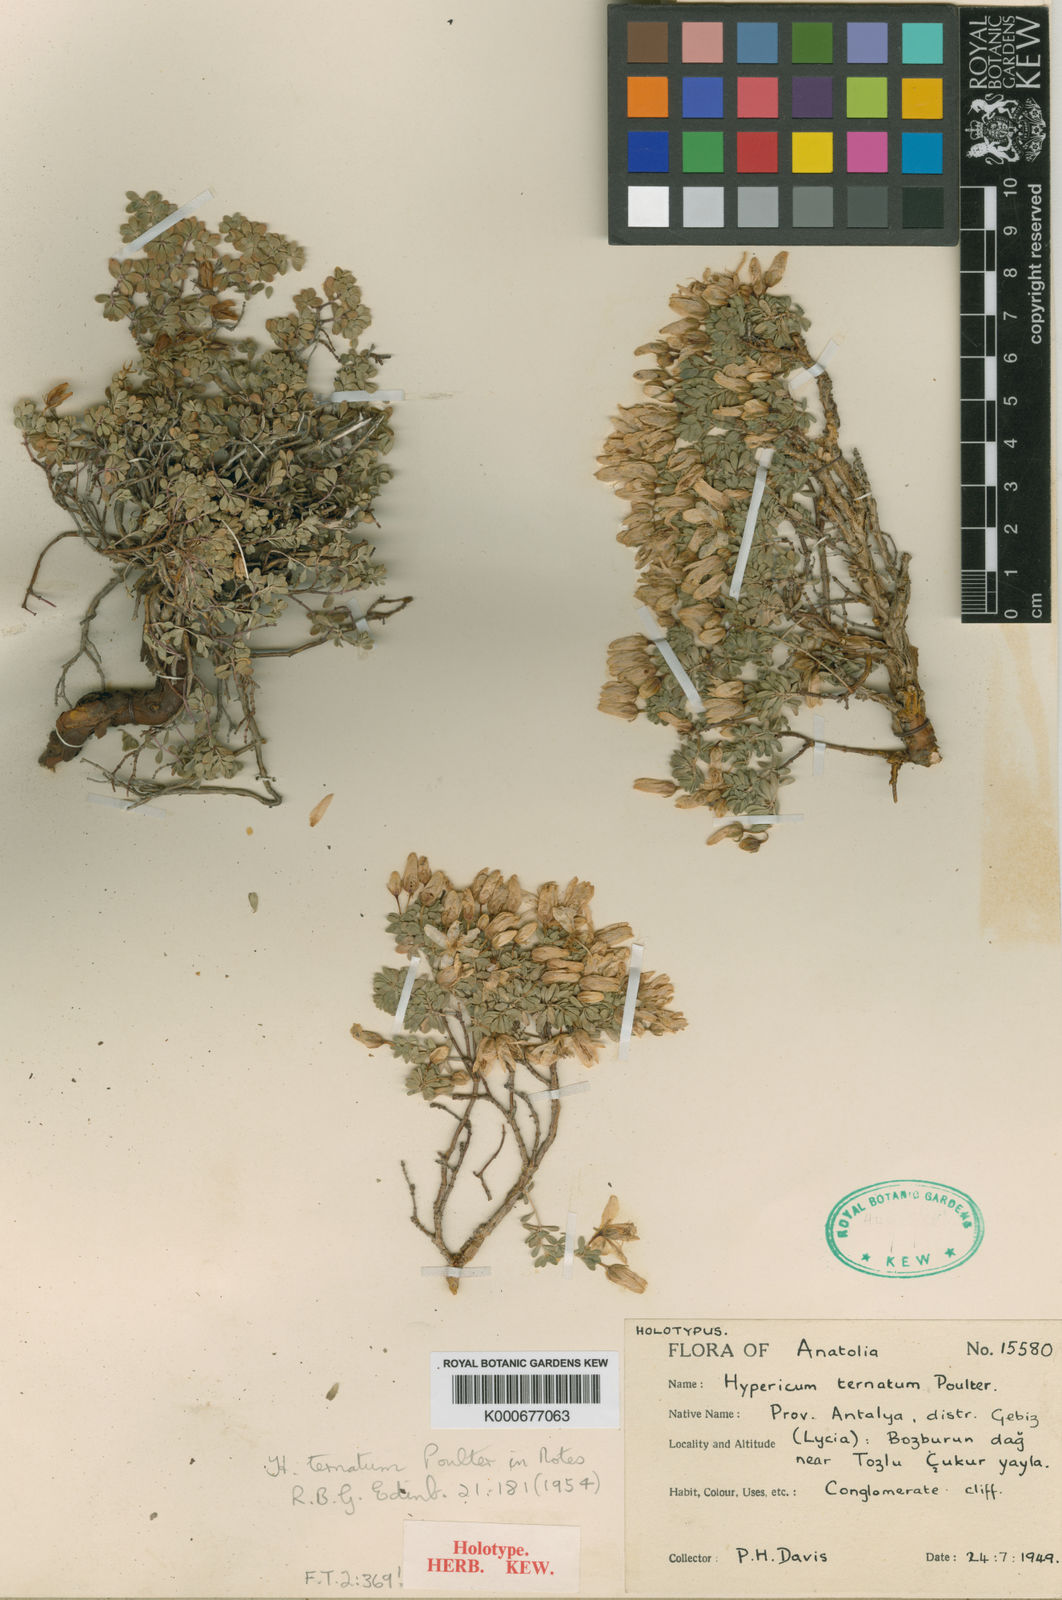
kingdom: Plantae
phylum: Tracheophyta
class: Magnoliopsida
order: Malpighiales
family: Hypericaceae
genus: Hypericum
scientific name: Hypericum ternatum
